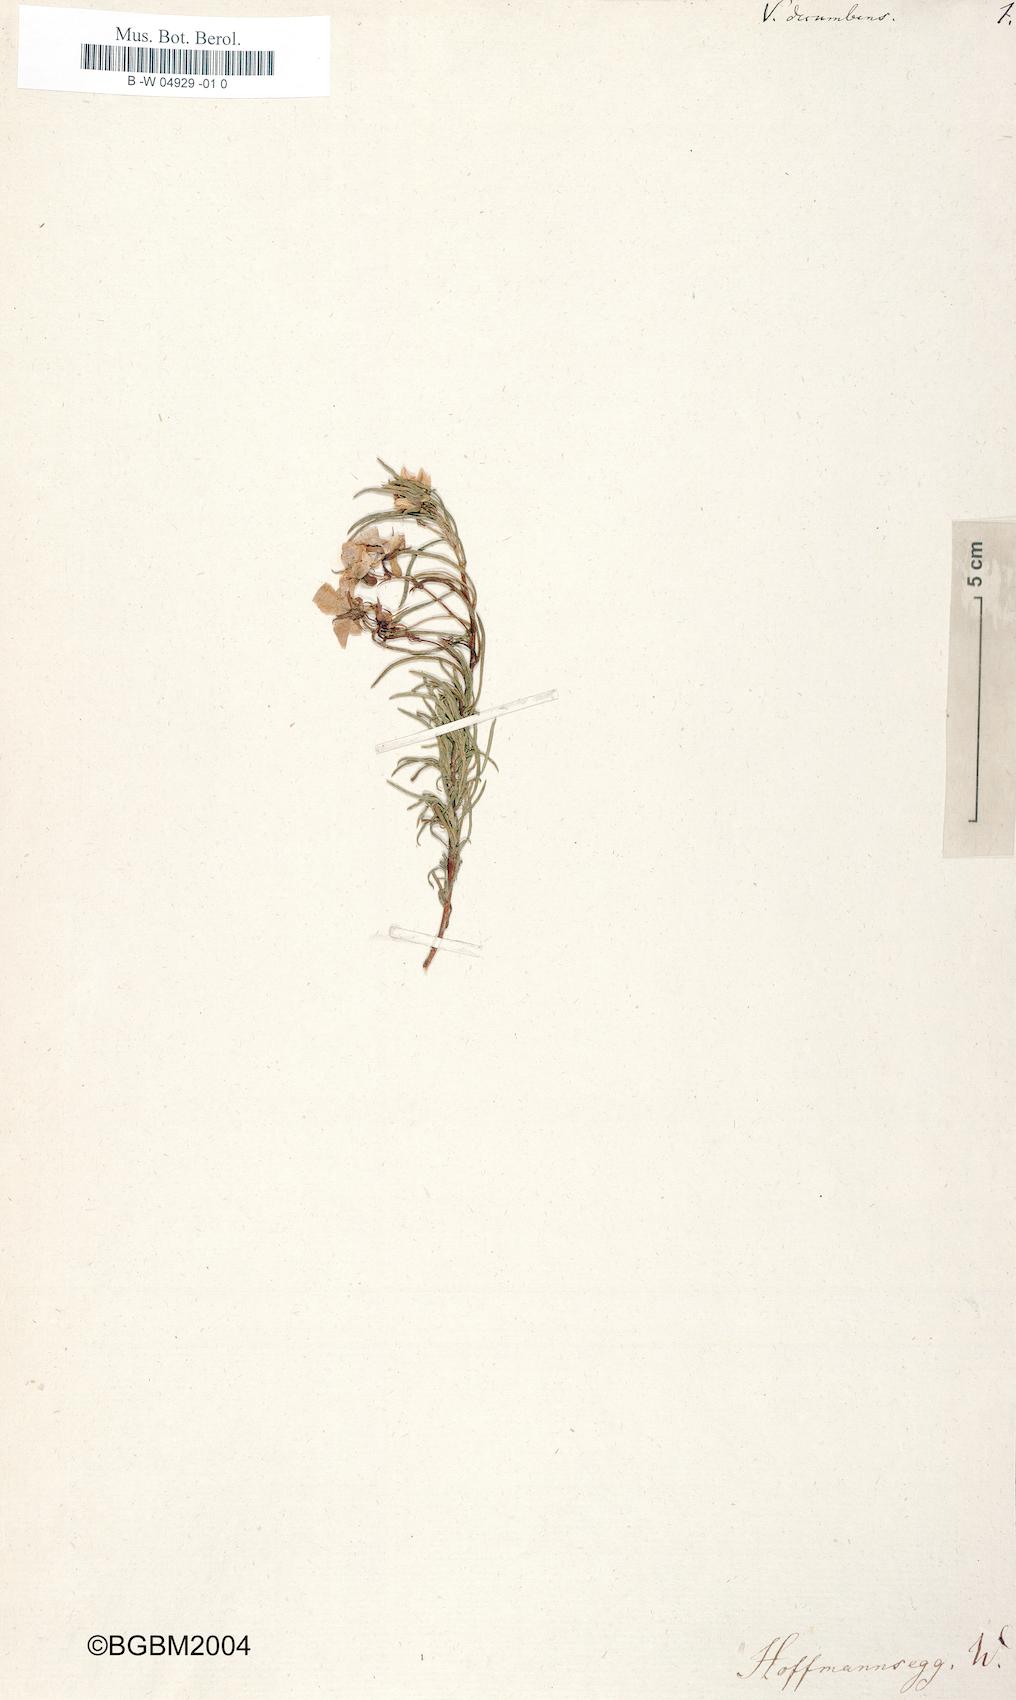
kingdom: Plantae
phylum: Tracheophyta
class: Magnoliopsida
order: Malpighiales
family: Violaceae
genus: Viola
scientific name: Viola decumbens
